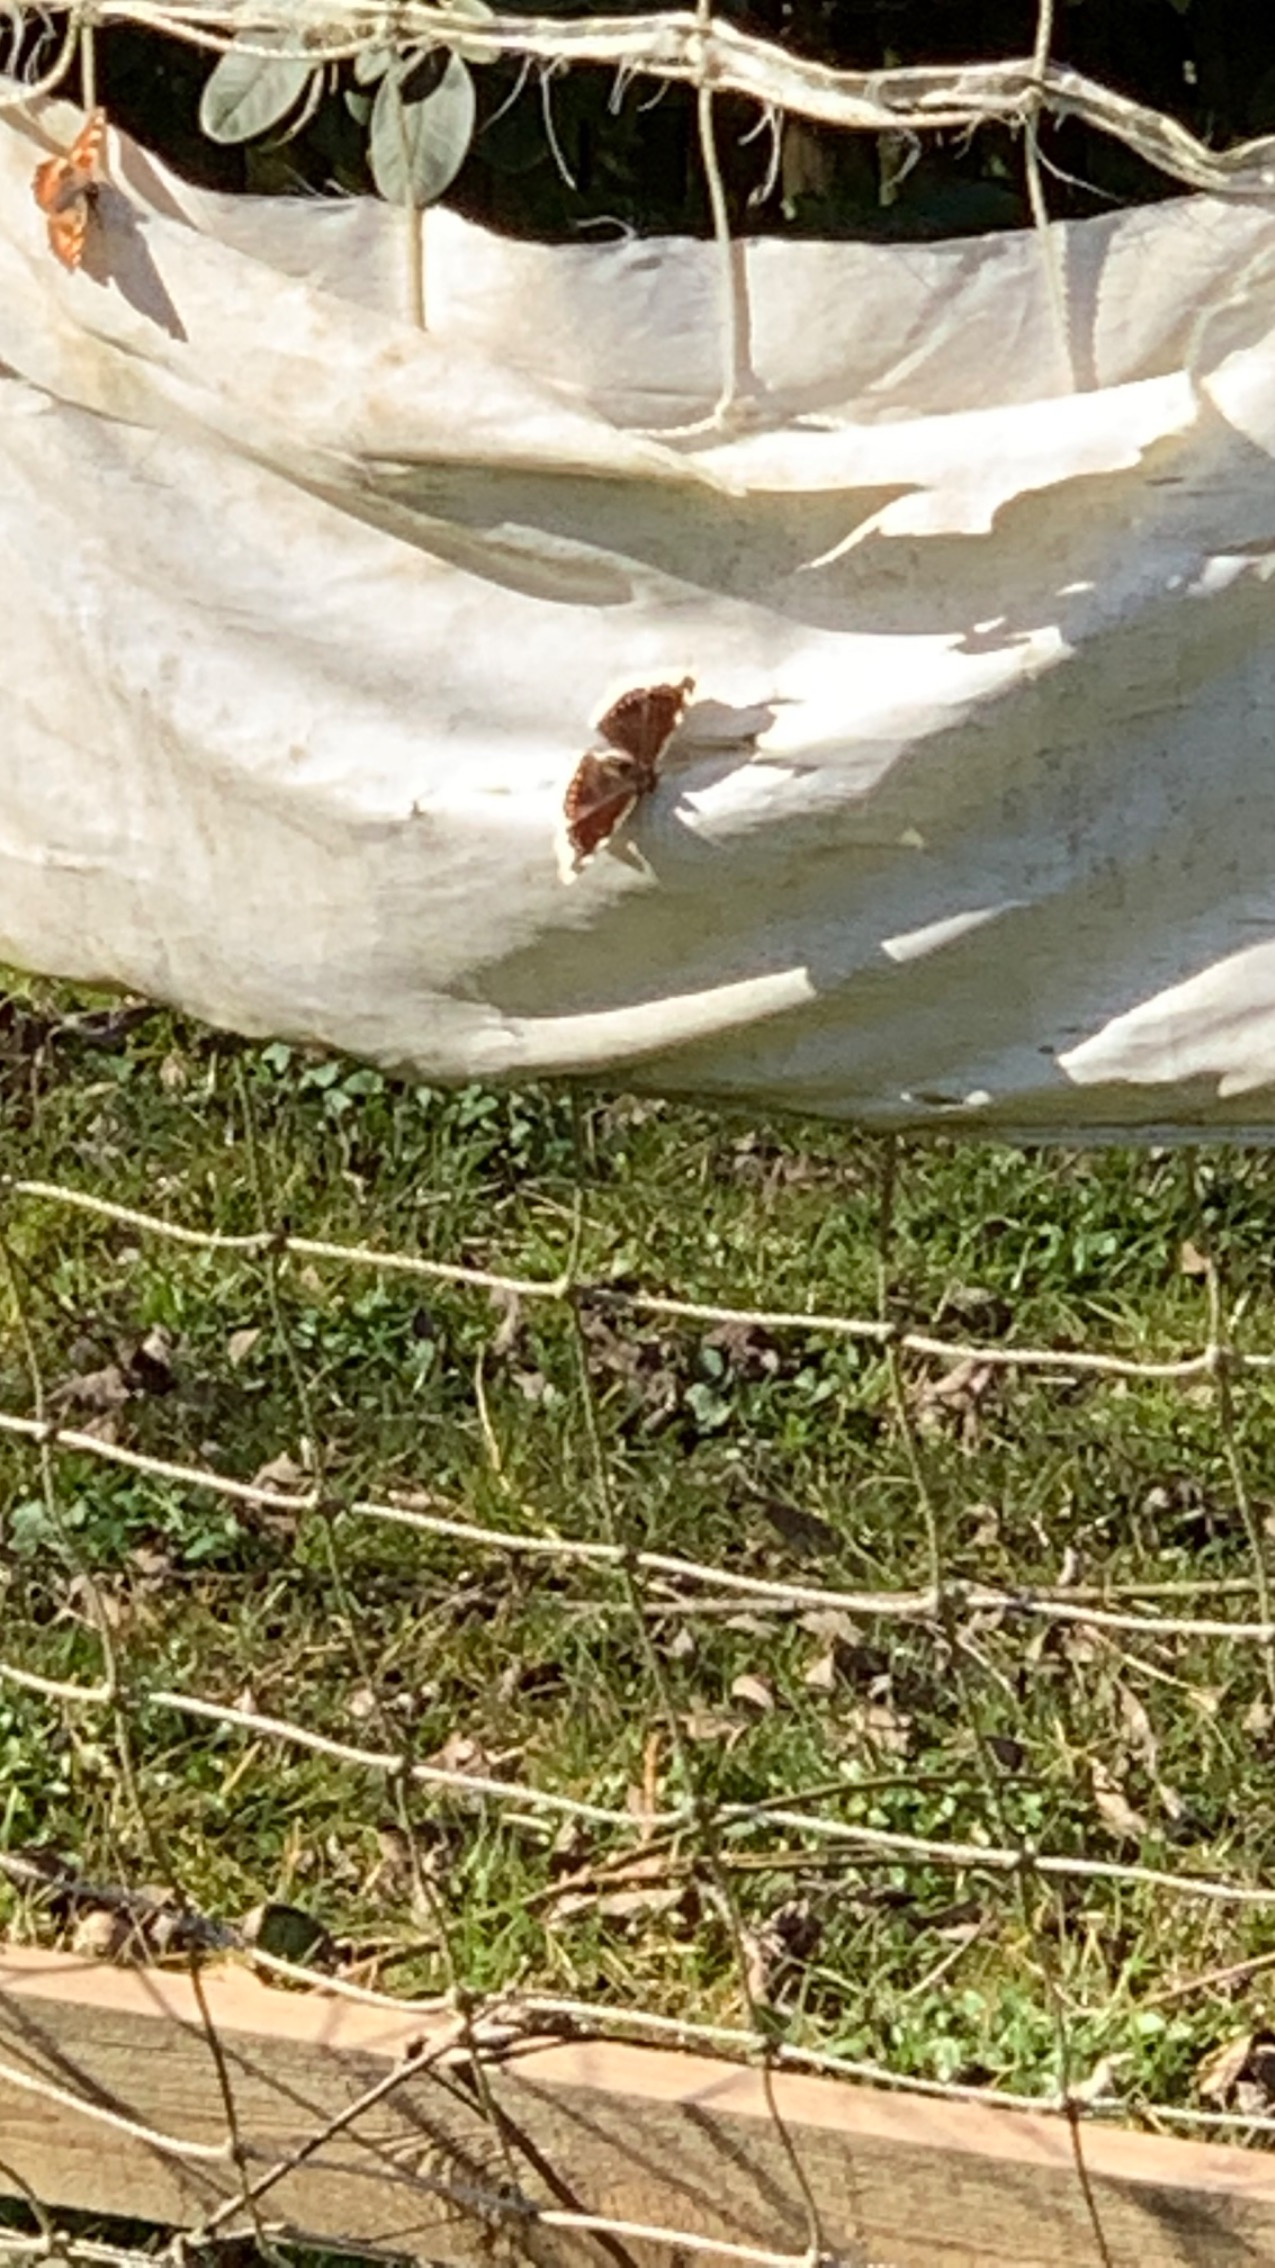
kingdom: Animalia
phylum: Arthropoda
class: Insecta
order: Lepidoptera
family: Nymphalidae
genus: Nymphalis
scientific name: Nymphalis antiopa
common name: Sørgekåbe
